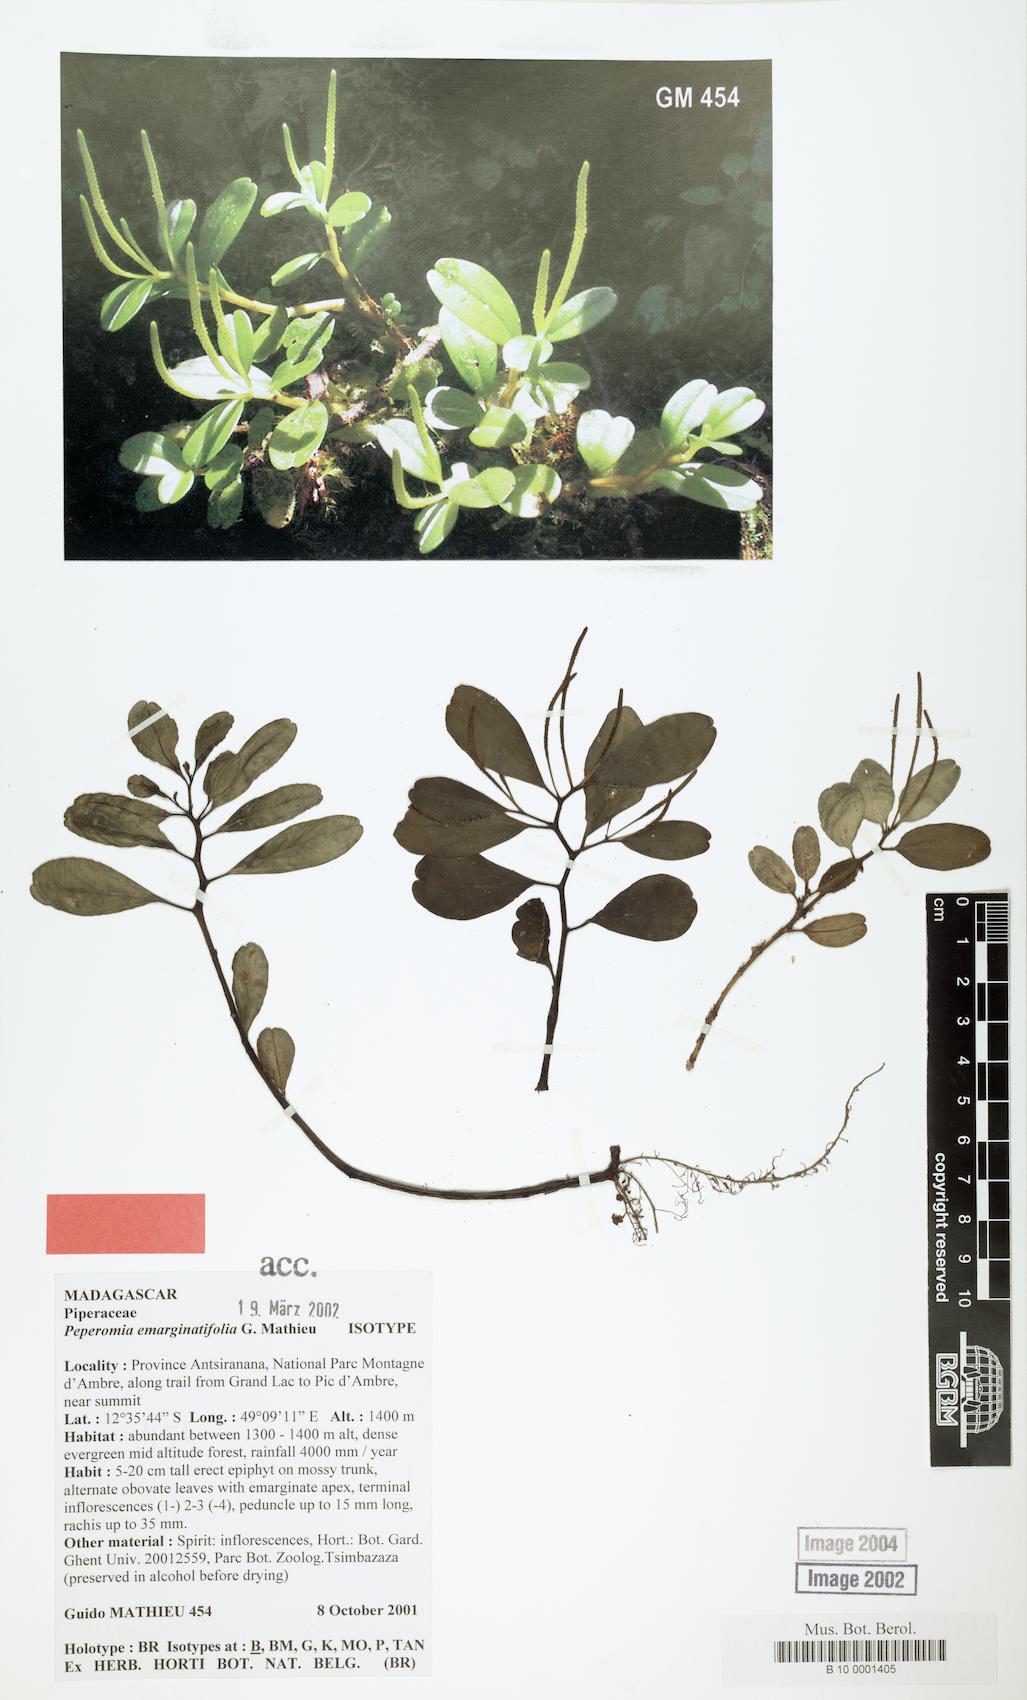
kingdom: Plantae
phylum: Tracheophyta
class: Magnoliopsida
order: Piperales
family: Piperaceae
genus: Peperomia
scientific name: Peperomia emarginatifolia
